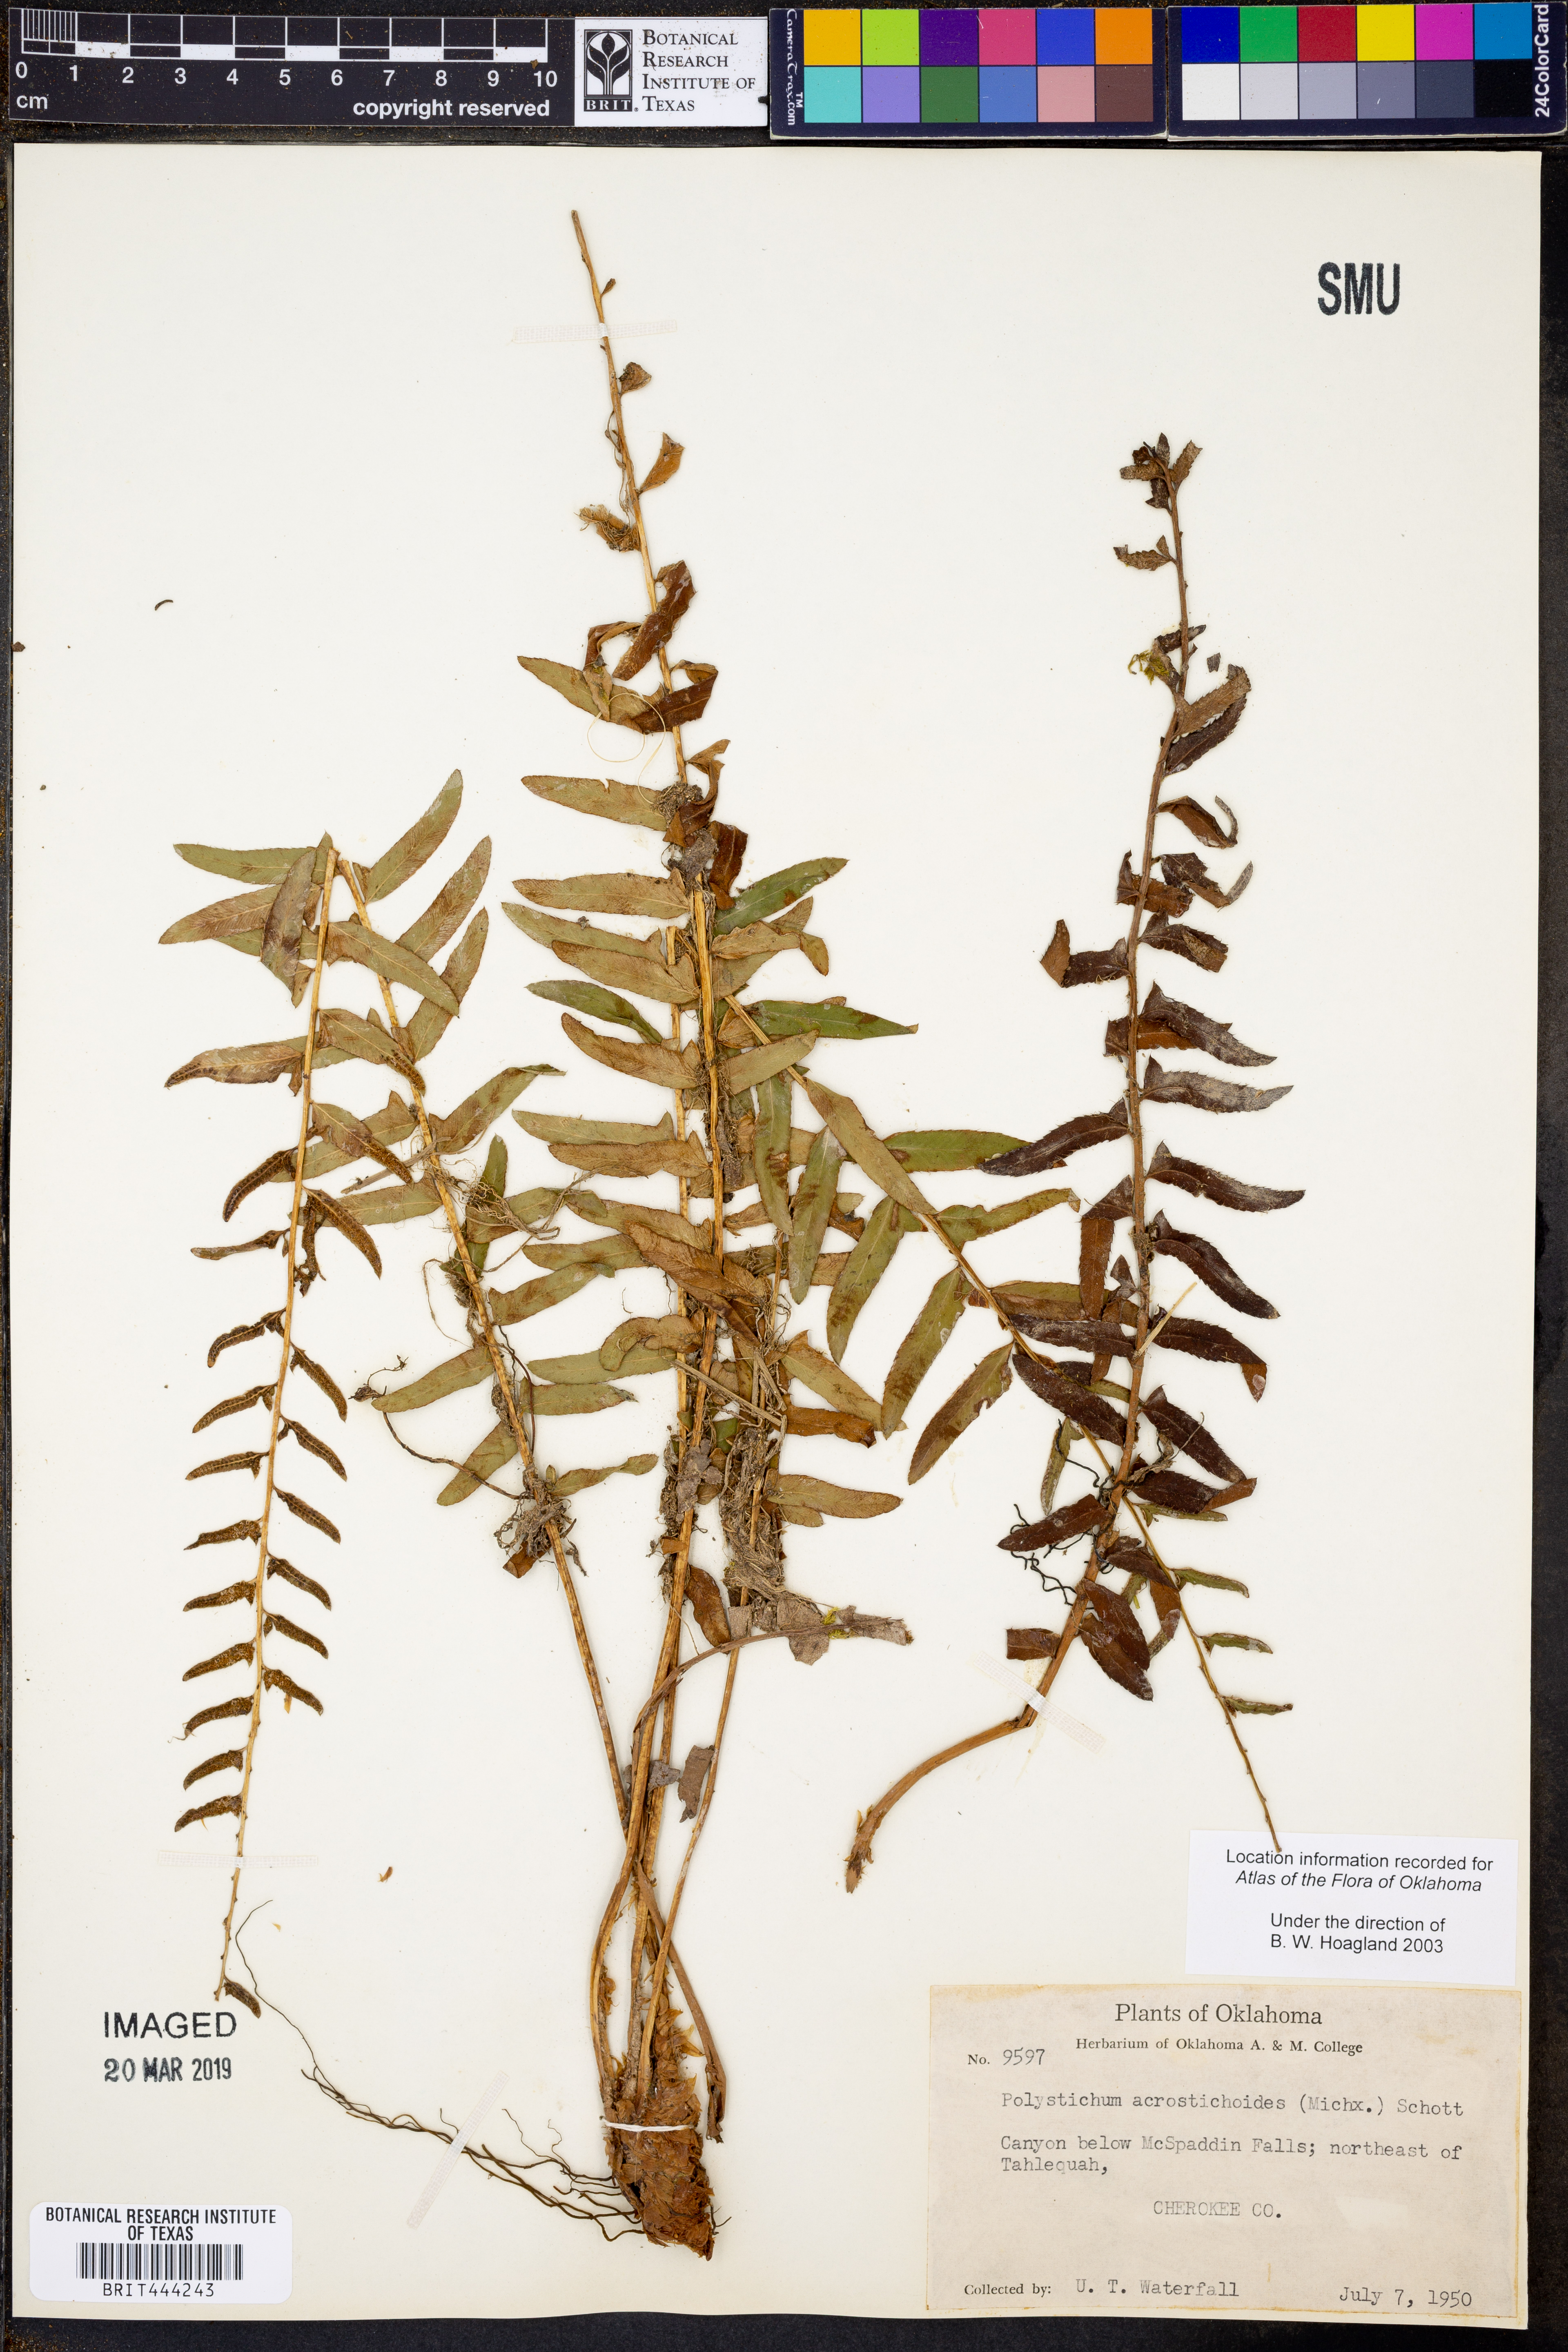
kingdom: Plantae
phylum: Tracheophyta
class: Polypodiopsida
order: Polypodiales
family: Dryopteridaceae
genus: Polystichum
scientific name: Polystichum acrostichoides
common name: Christmas fern
